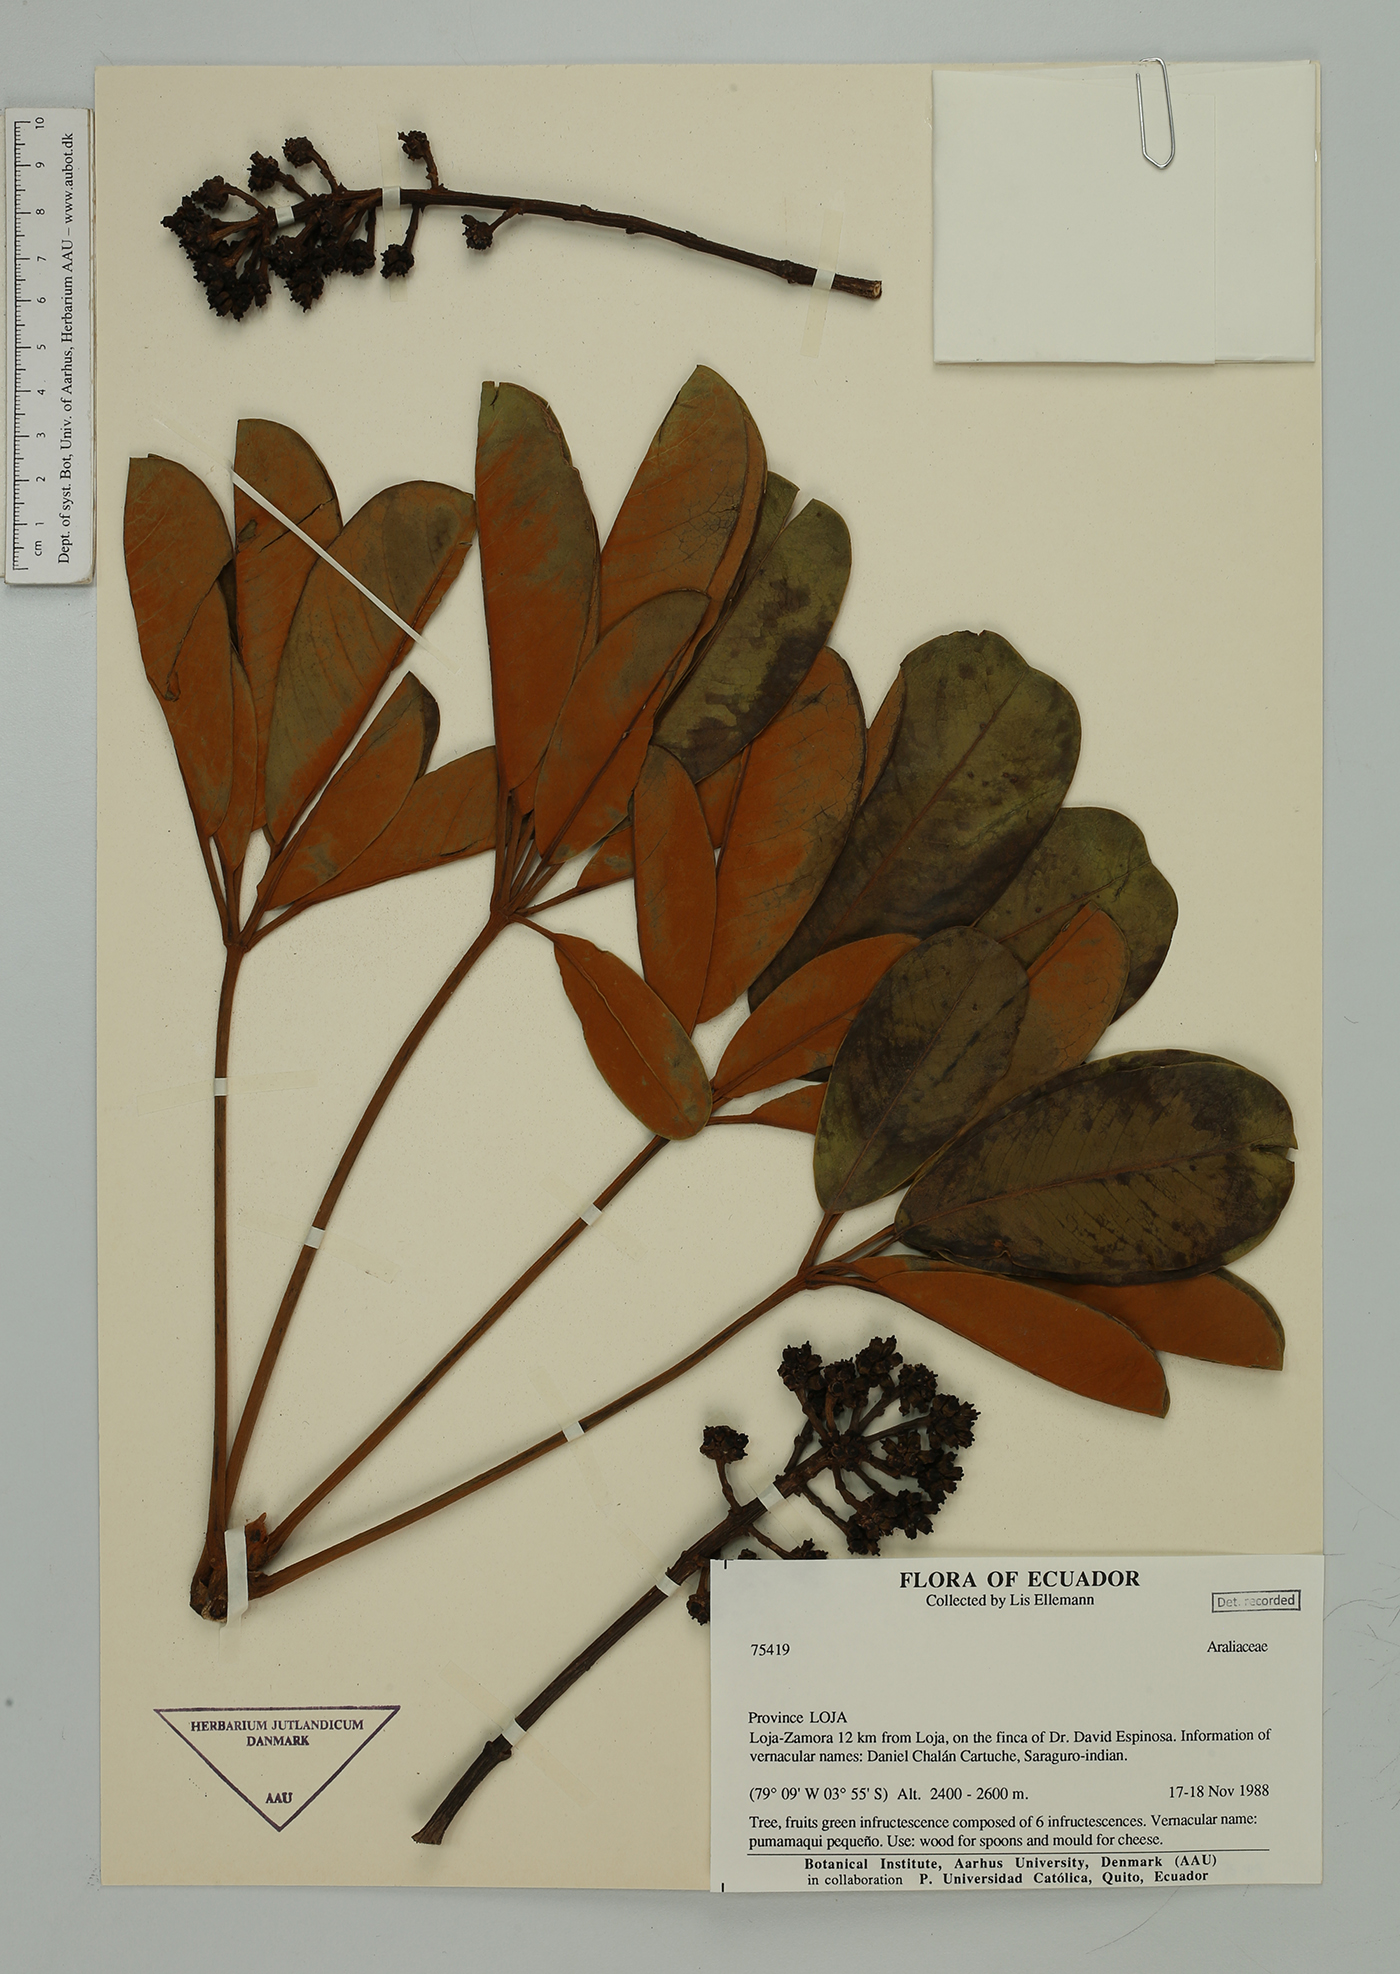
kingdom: Plantae
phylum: Tracheophyta
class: Magnoliopsida
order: Apiales
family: Araliaceae
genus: Cephalopanax
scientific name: Cephalopanax
